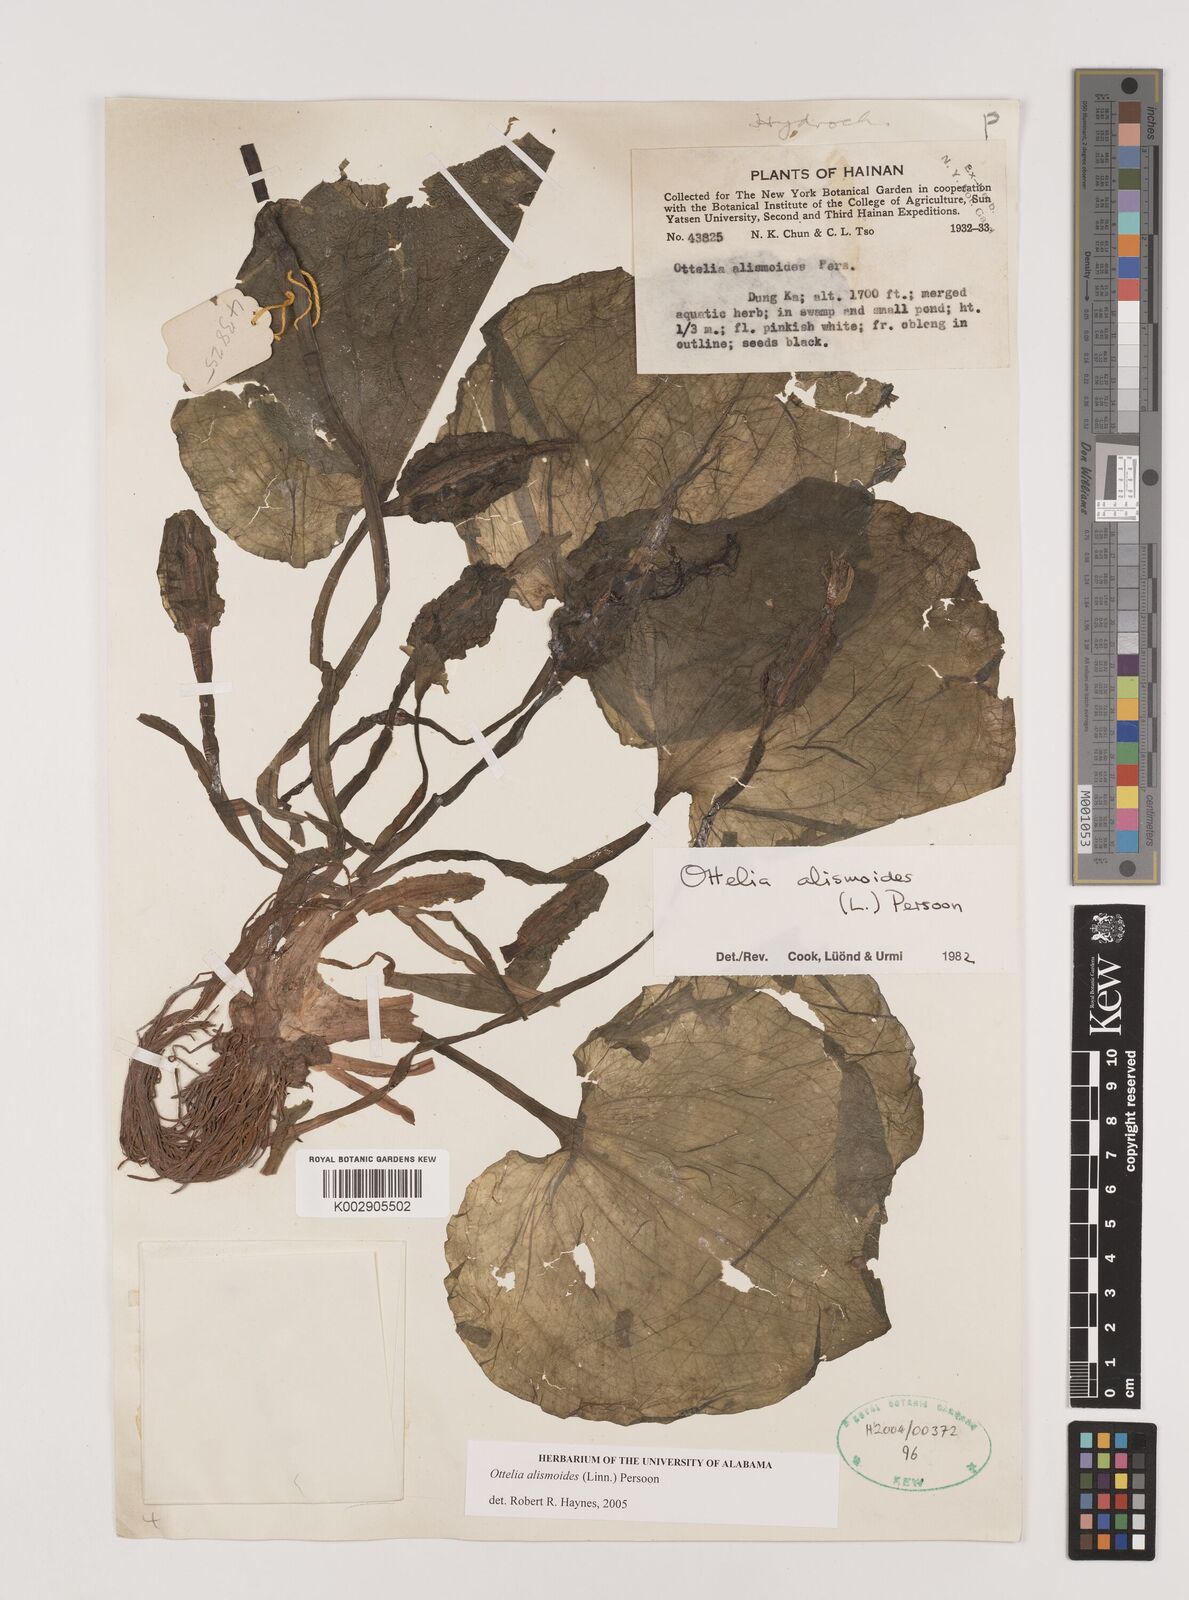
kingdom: Plantae
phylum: Tracheophyta
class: Liliopsida
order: Alismatales
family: Hydrocharitaceae
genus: Ottelia
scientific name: Ottelia alismoides
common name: Duck-lettuce
